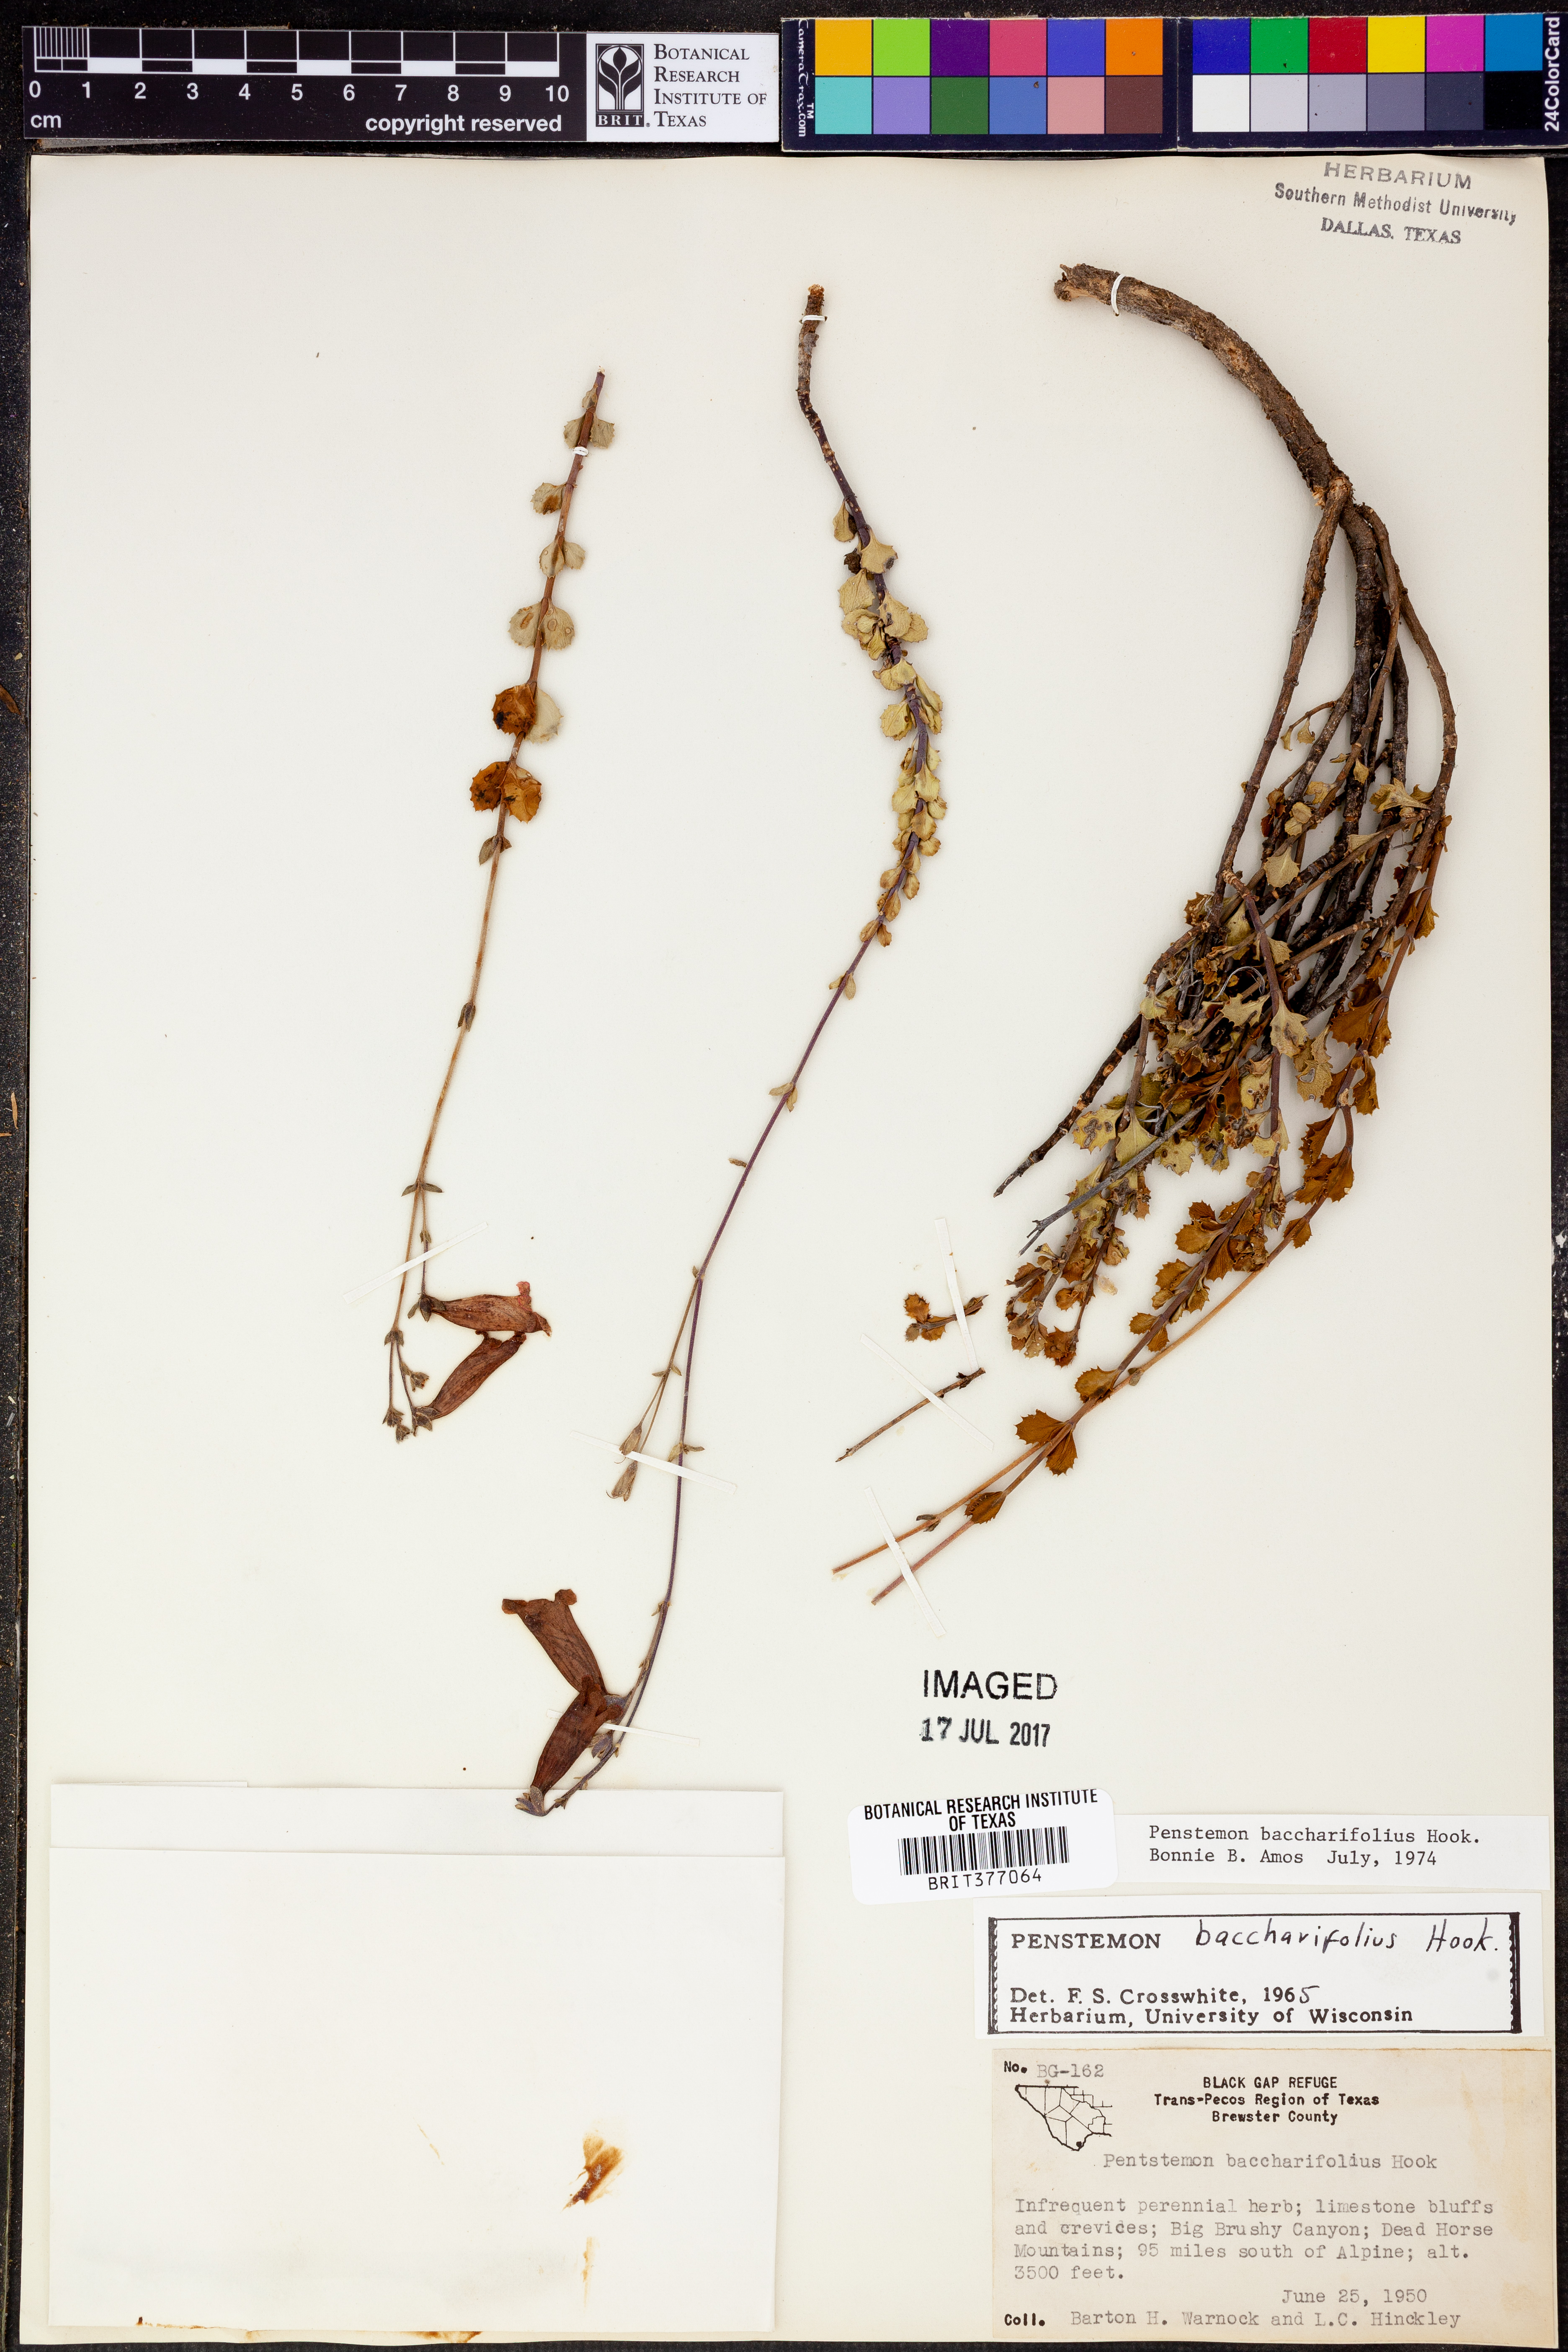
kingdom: Plantae
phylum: Tracheophyta
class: Magnoliopsida
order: Lamiales
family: Plantaginaceae
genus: Penstemon
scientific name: Penstemon baccharifolius
